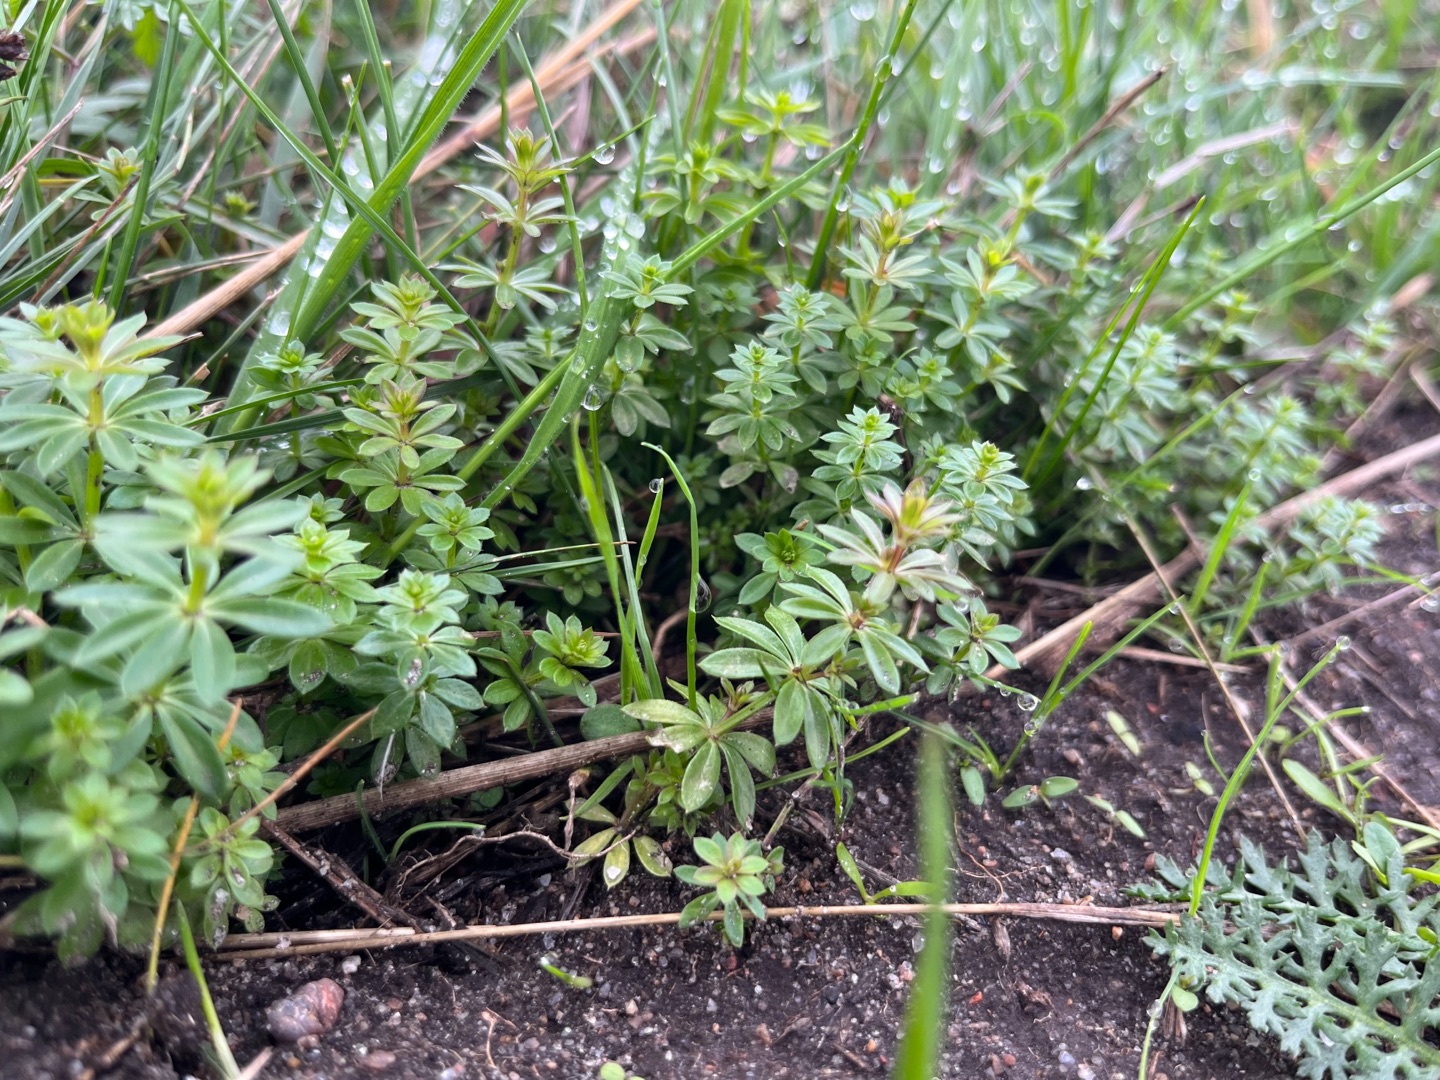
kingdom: Plantae
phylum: Tracheophyta
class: Magnoliopsida
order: Gentianales
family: Rubiaceae
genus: Galium
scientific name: Galium mollugo
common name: Hvid snerre
